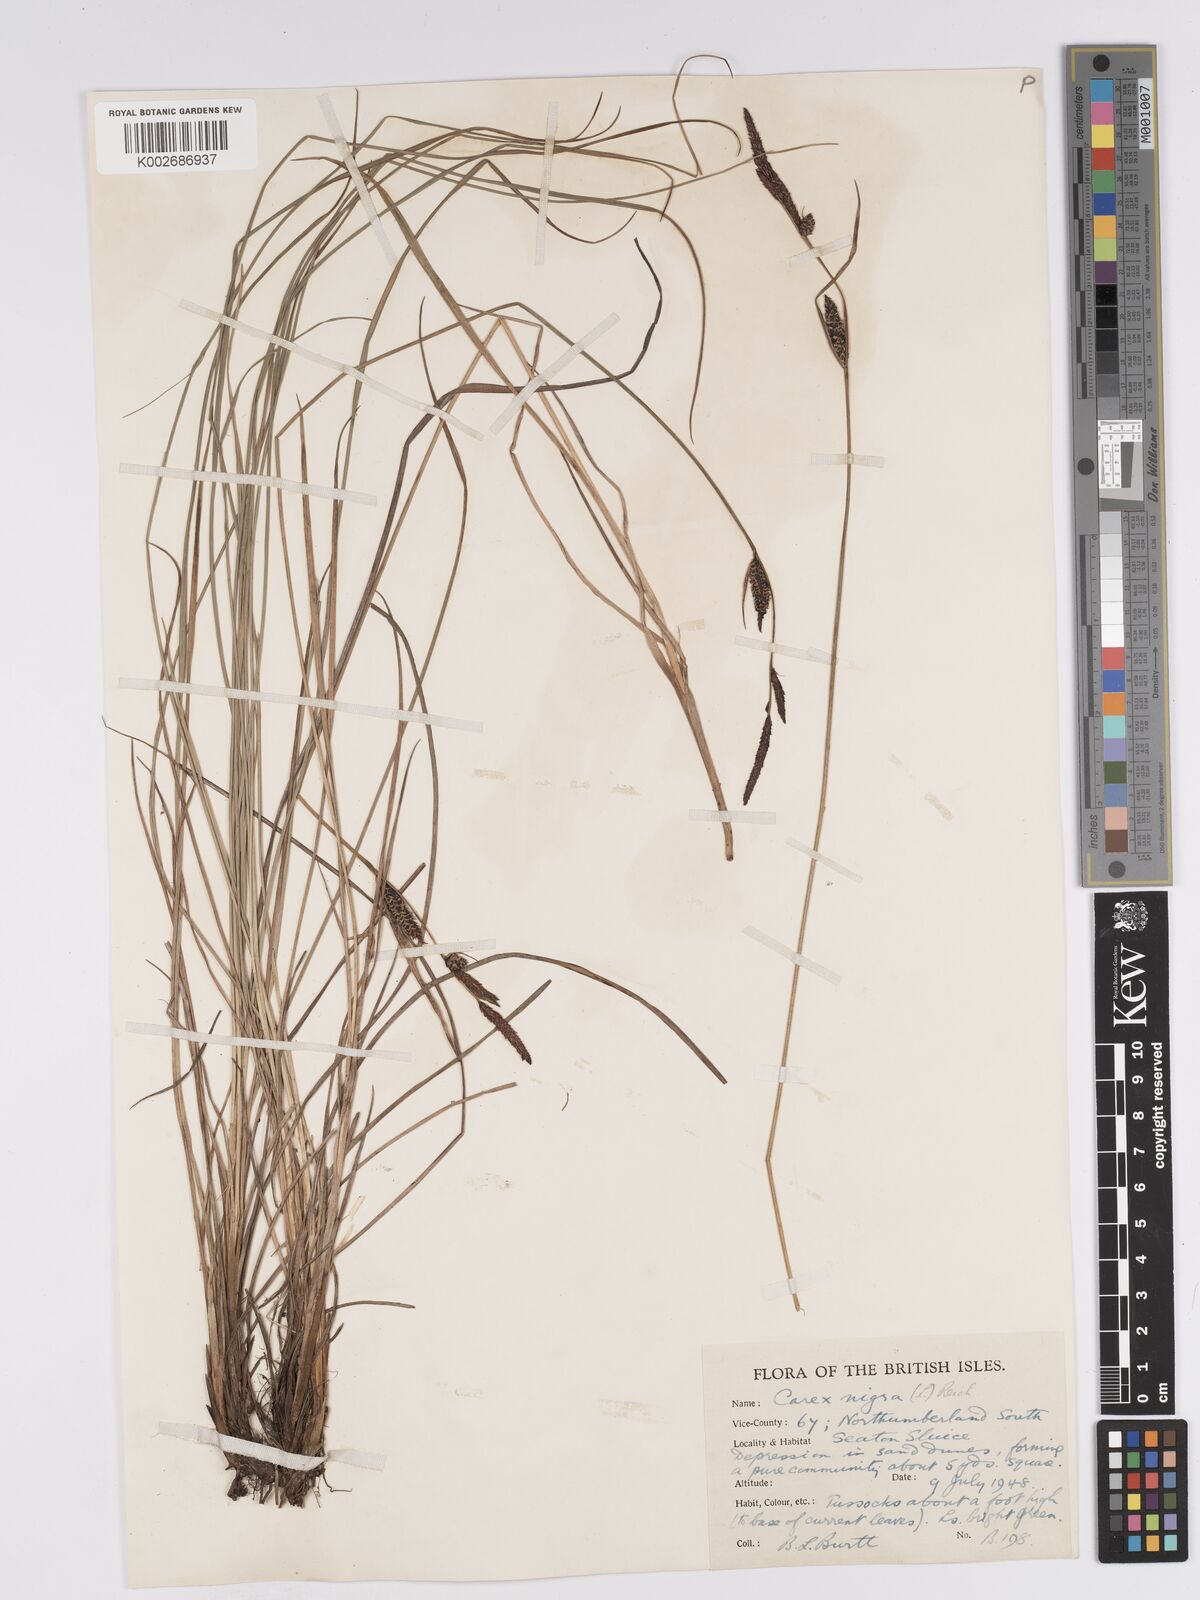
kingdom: Plantae
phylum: Tracheophyta
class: Liliopsida
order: Poales
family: Cyperaceae
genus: Carex
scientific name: Carex nigra
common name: Common sedge
